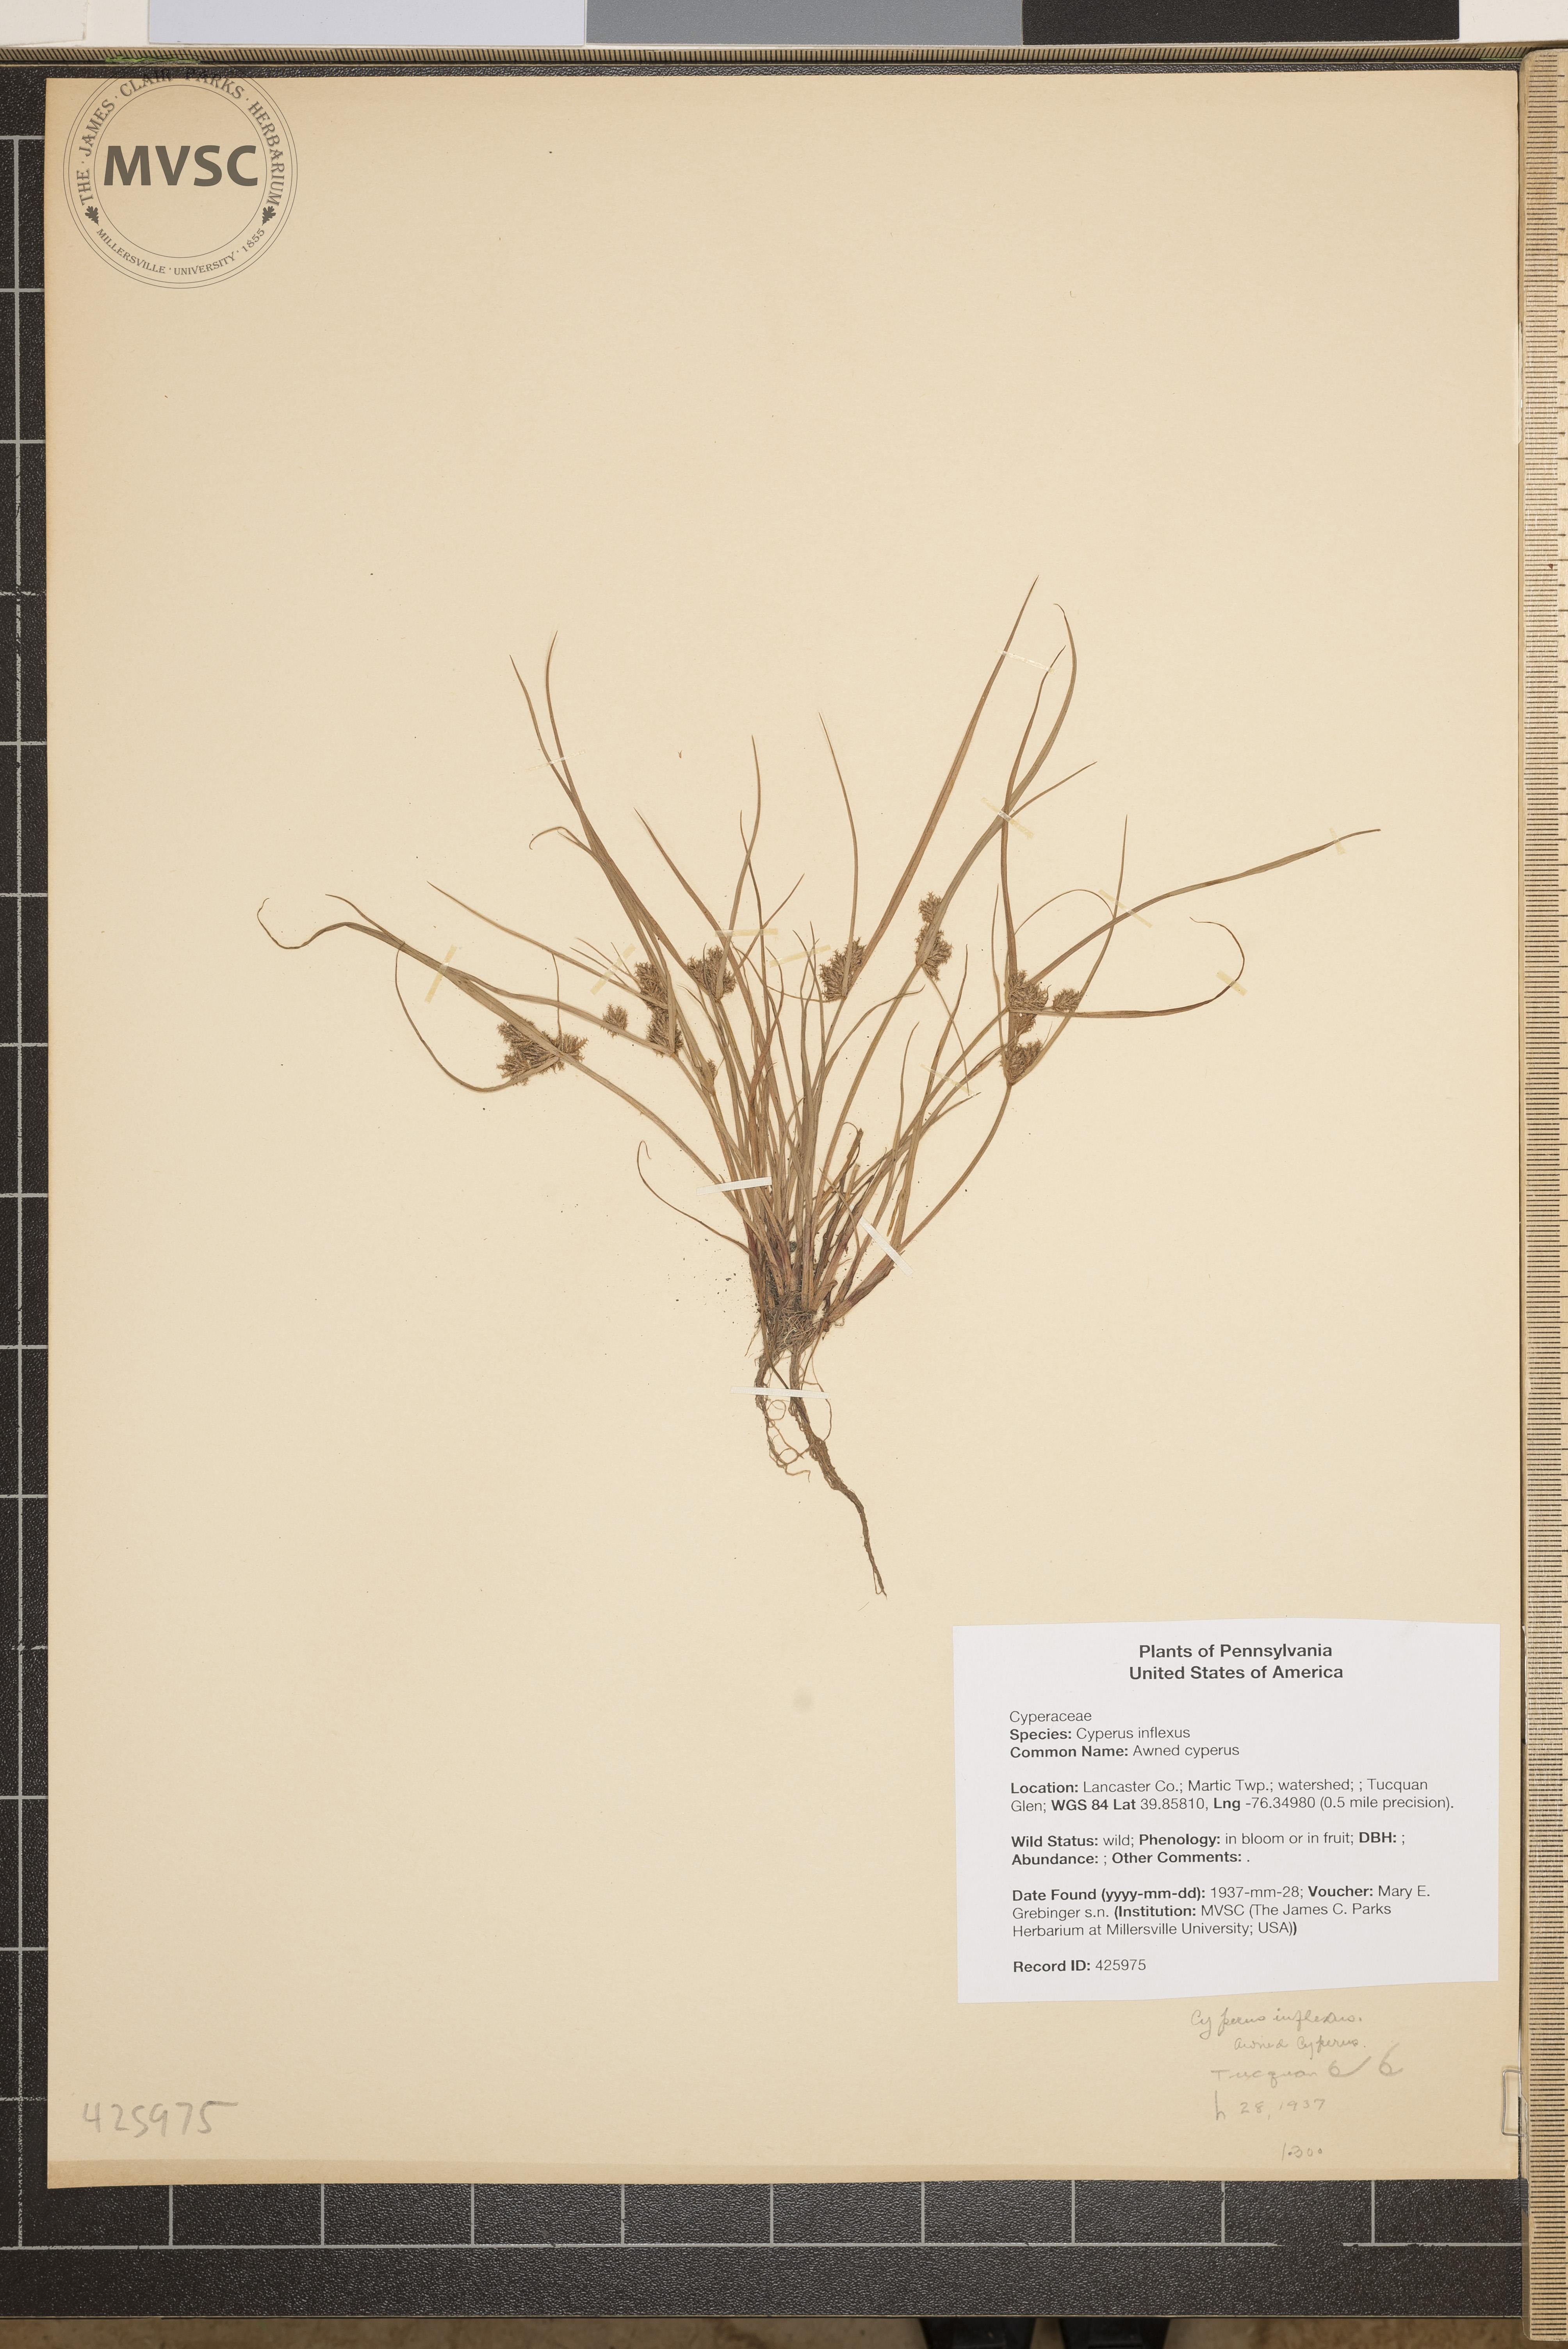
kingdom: Plantae
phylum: Tracheophyta
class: Liliopsida
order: Poales
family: Cyperaceae
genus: Cyperus
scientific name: Cyperus squarrosus
